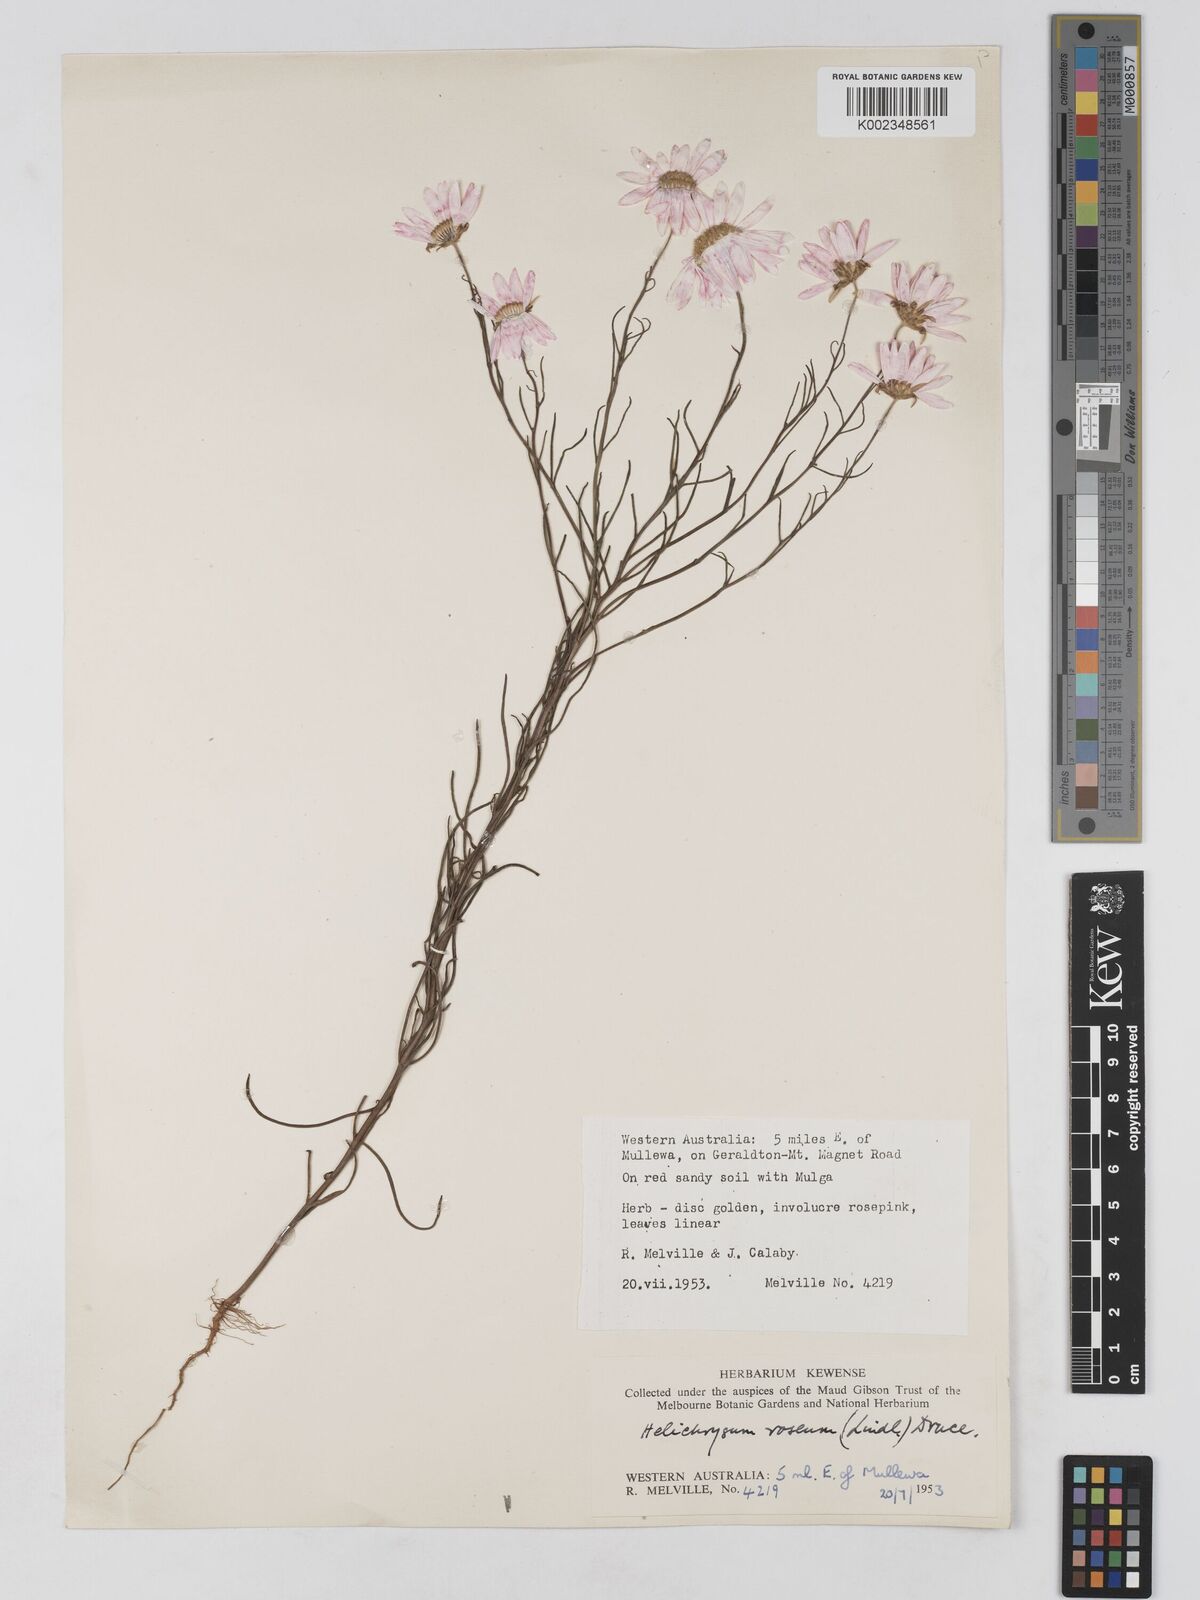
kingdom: Plantae
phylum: Tracheophyta
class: Magnoliopsida
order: Asterales
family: Asteraceae
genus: Lawrencella
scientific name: Lawrencella rosea
